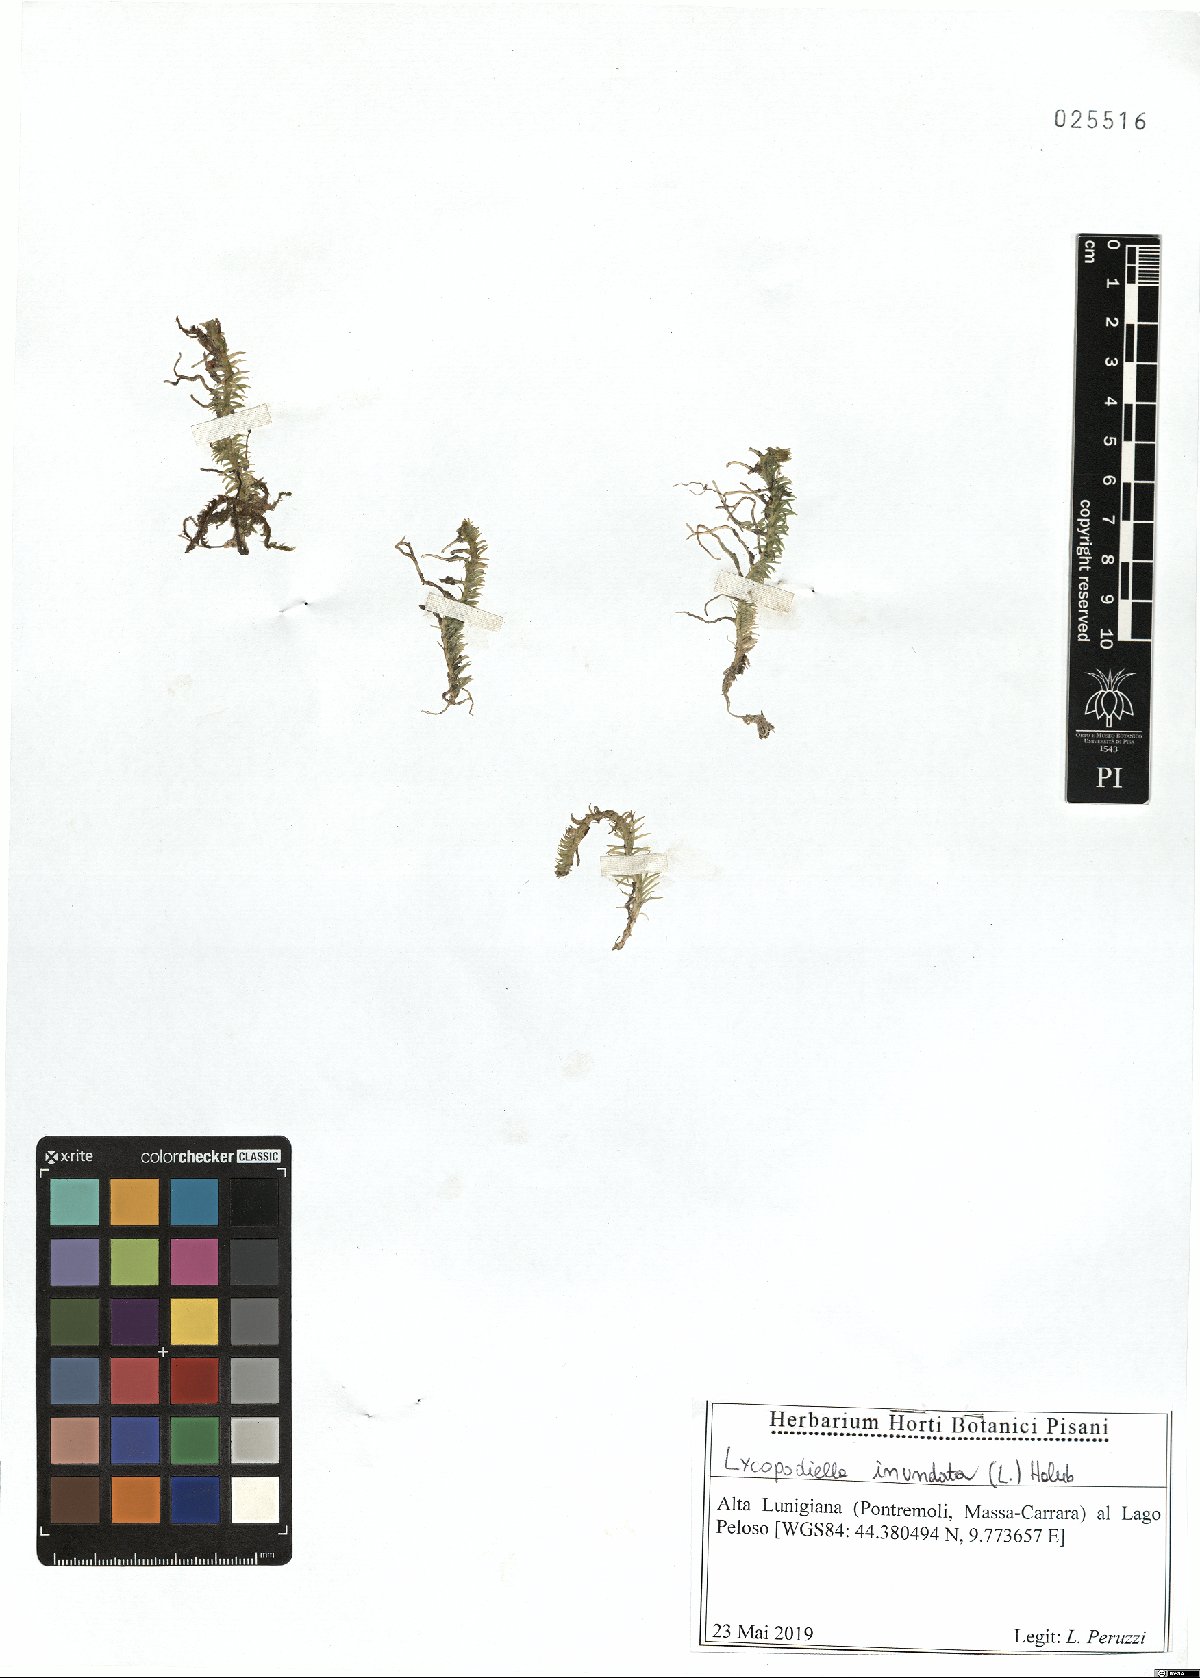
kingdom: Plantae
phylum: Tracheophyta
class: Lycopodiopsida
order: Lycopodiales
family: Lycopodiaceae
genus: Lycopodiella
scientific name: Lycopodiella inundata
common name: Marsh clubmoss
